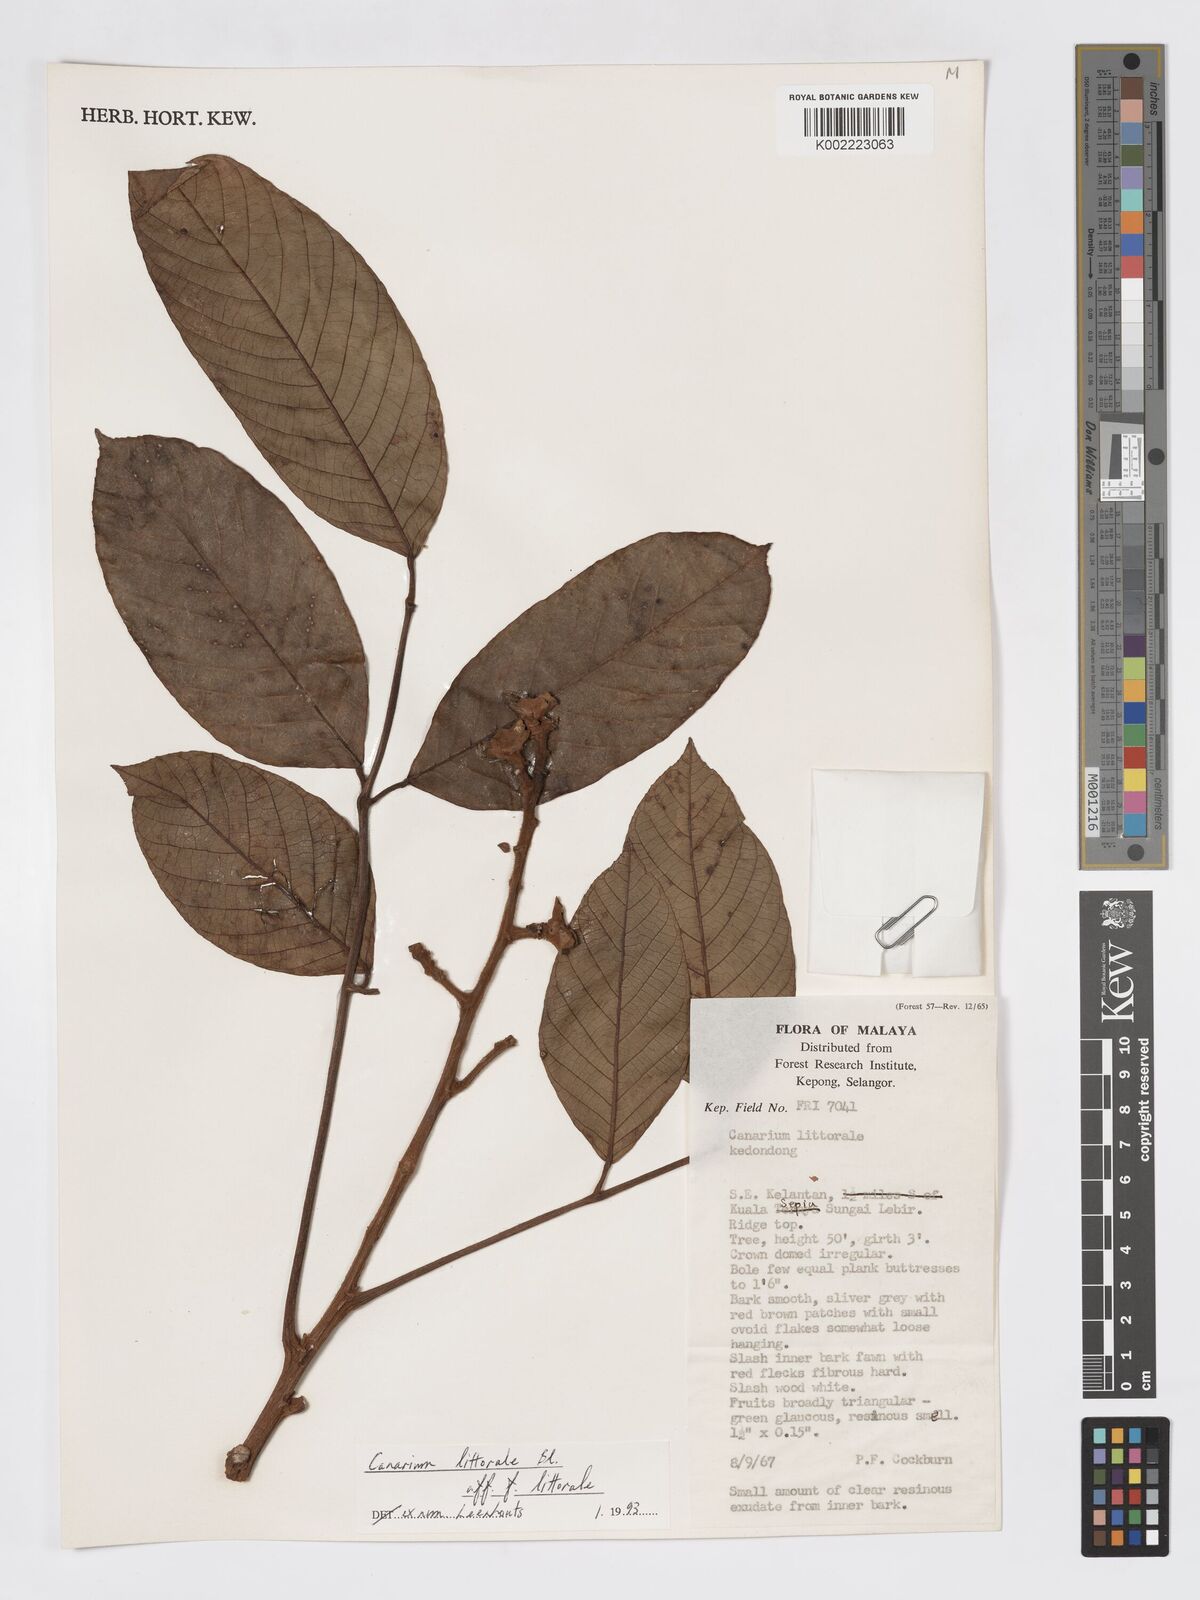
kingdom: Plantae
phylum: Tracheophyta
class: Magnoliopsida
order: Sapindales
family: Burseraceae
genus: Canarium
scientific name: Canarium littorale
